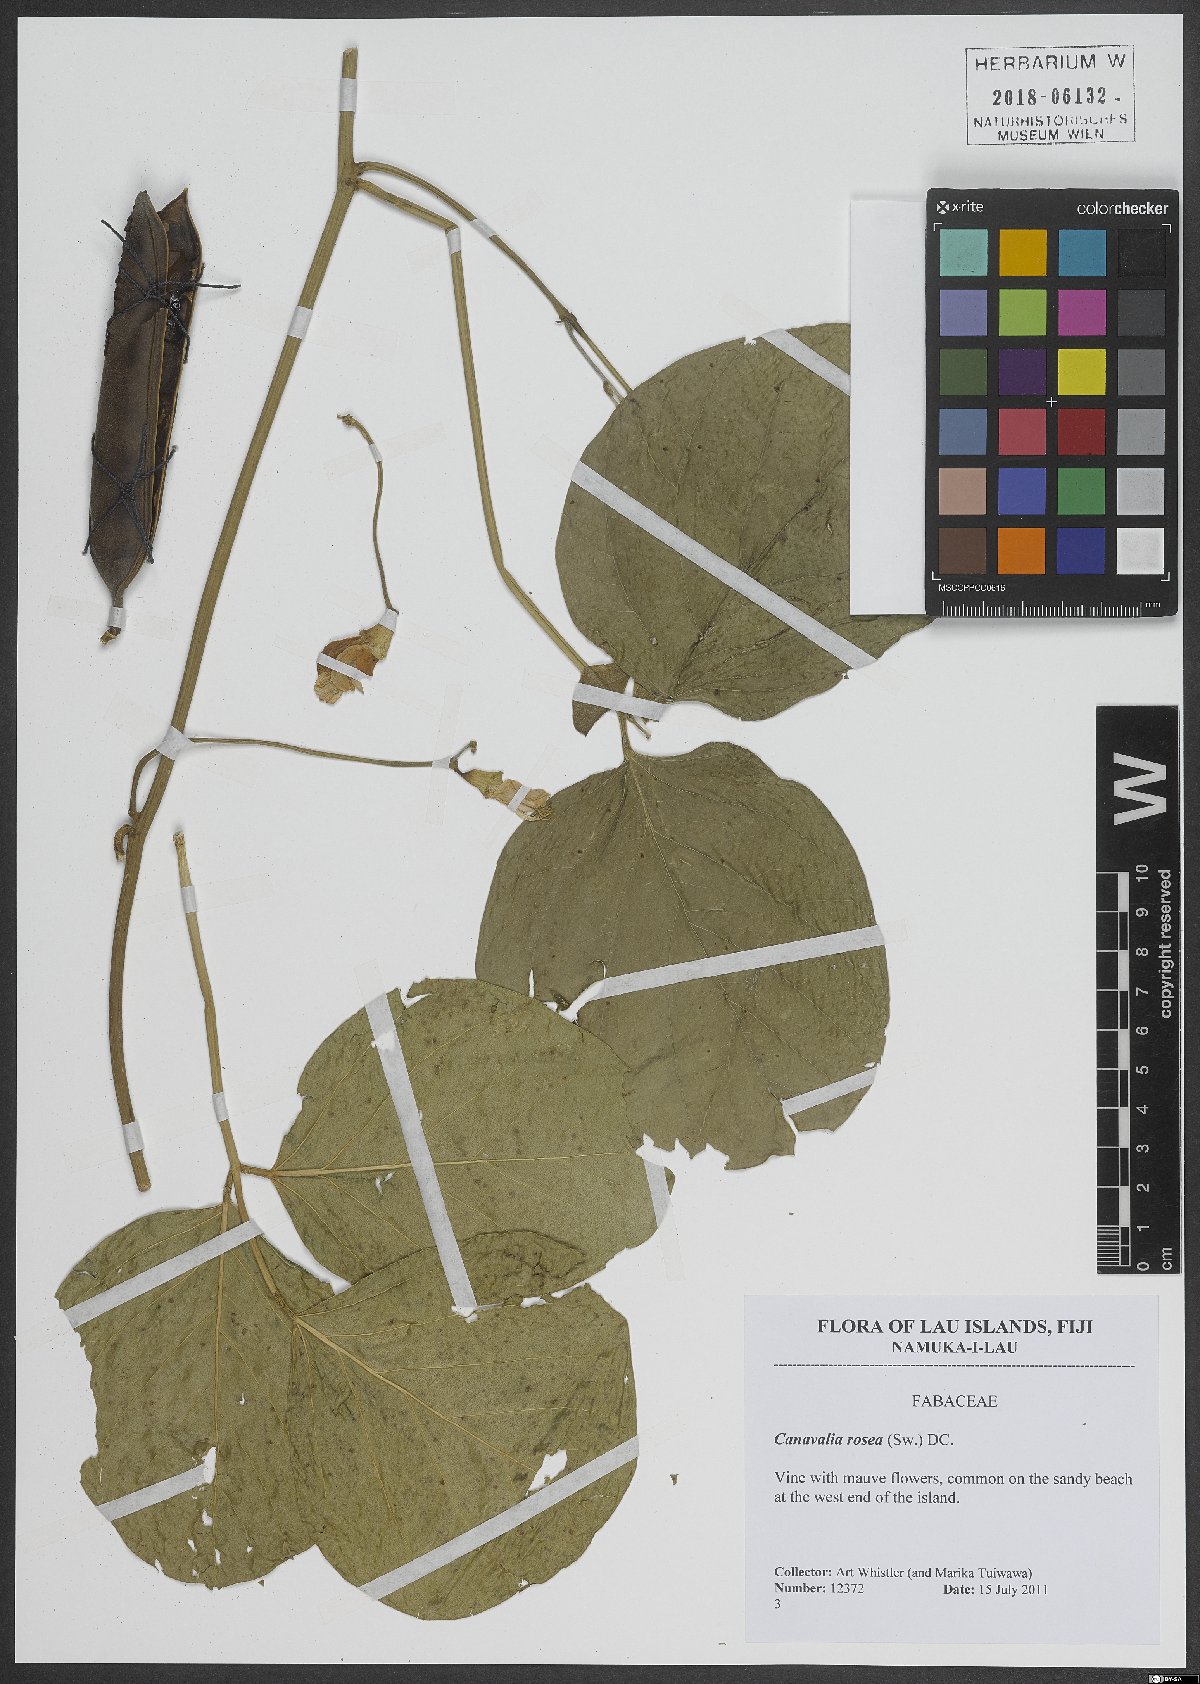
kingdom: Plantae
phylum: Tracheophyta
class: Magnoliopsida
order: Fabales
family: Fabaceae
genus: Canavalia
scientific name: Canavalia rosea
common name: Beach-bean
